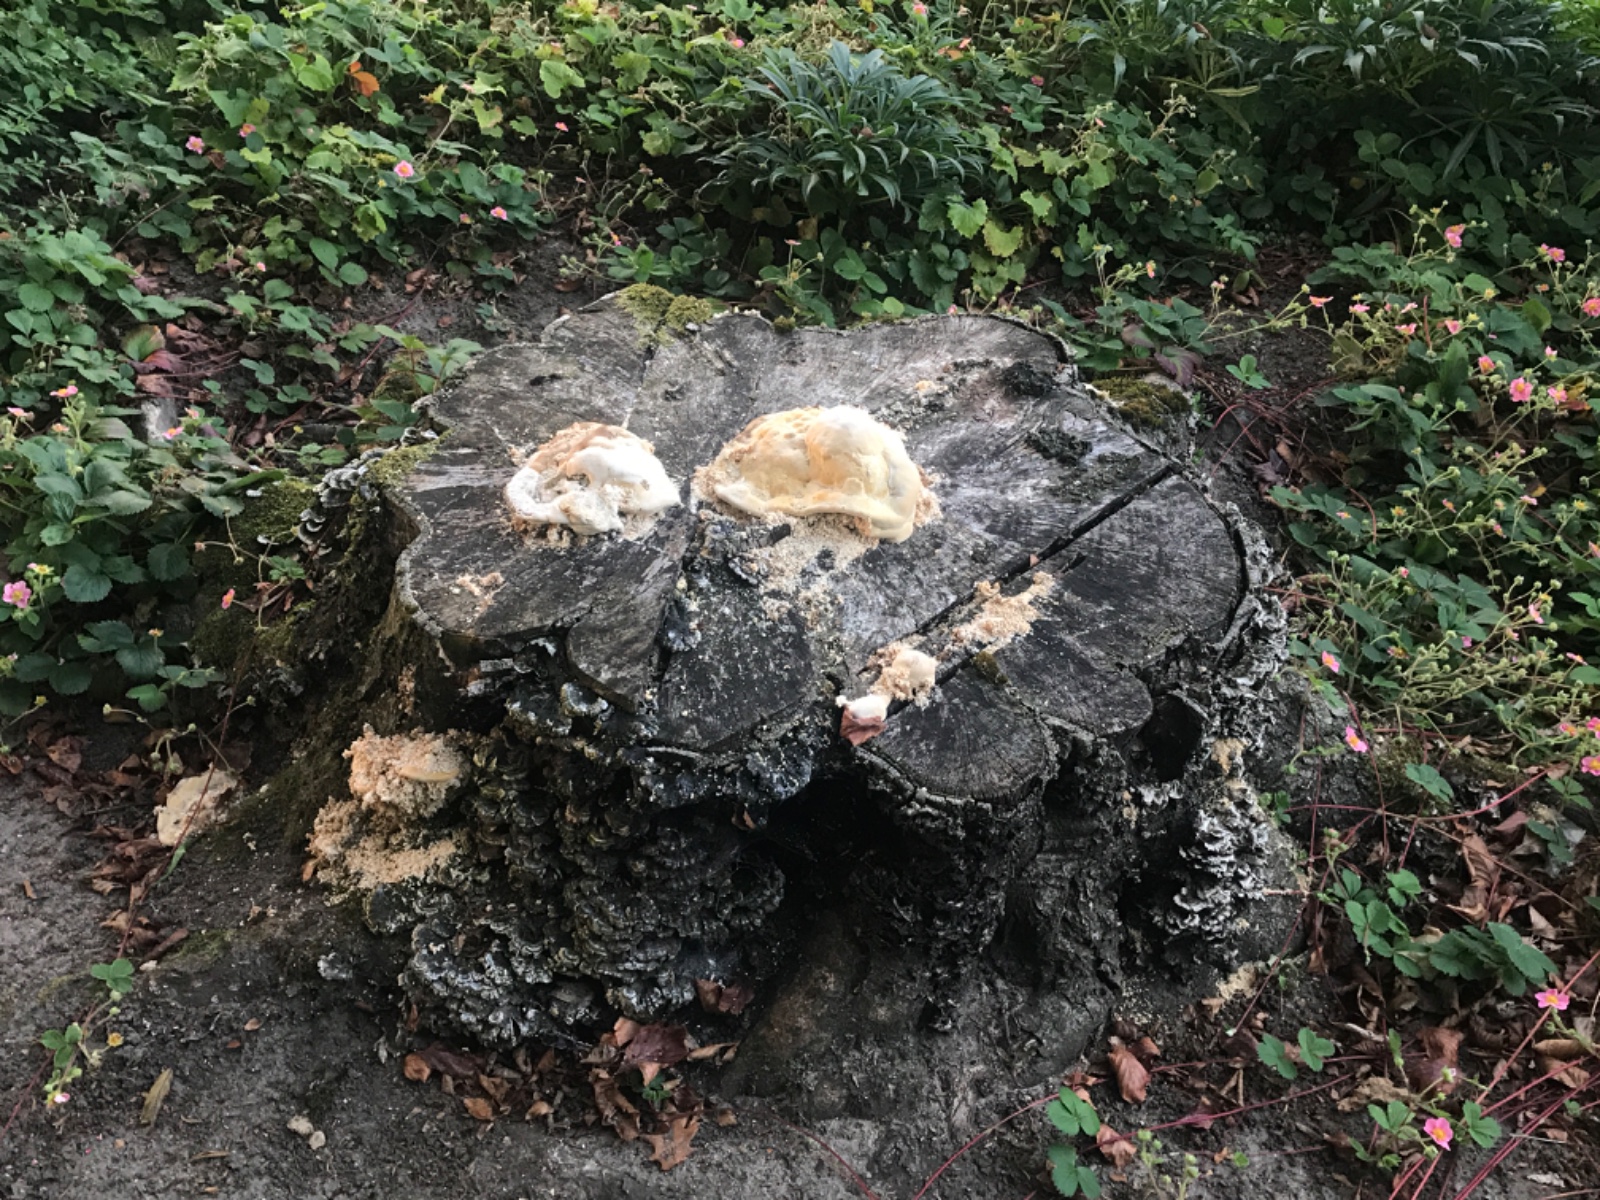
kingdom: Fungi
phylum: Basidiomycota
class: Agaricomycetes
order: Polyporales
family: Polyporaceae
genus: Trametes
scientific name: Trametes gibbosa
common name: puklet læderporesvamp
